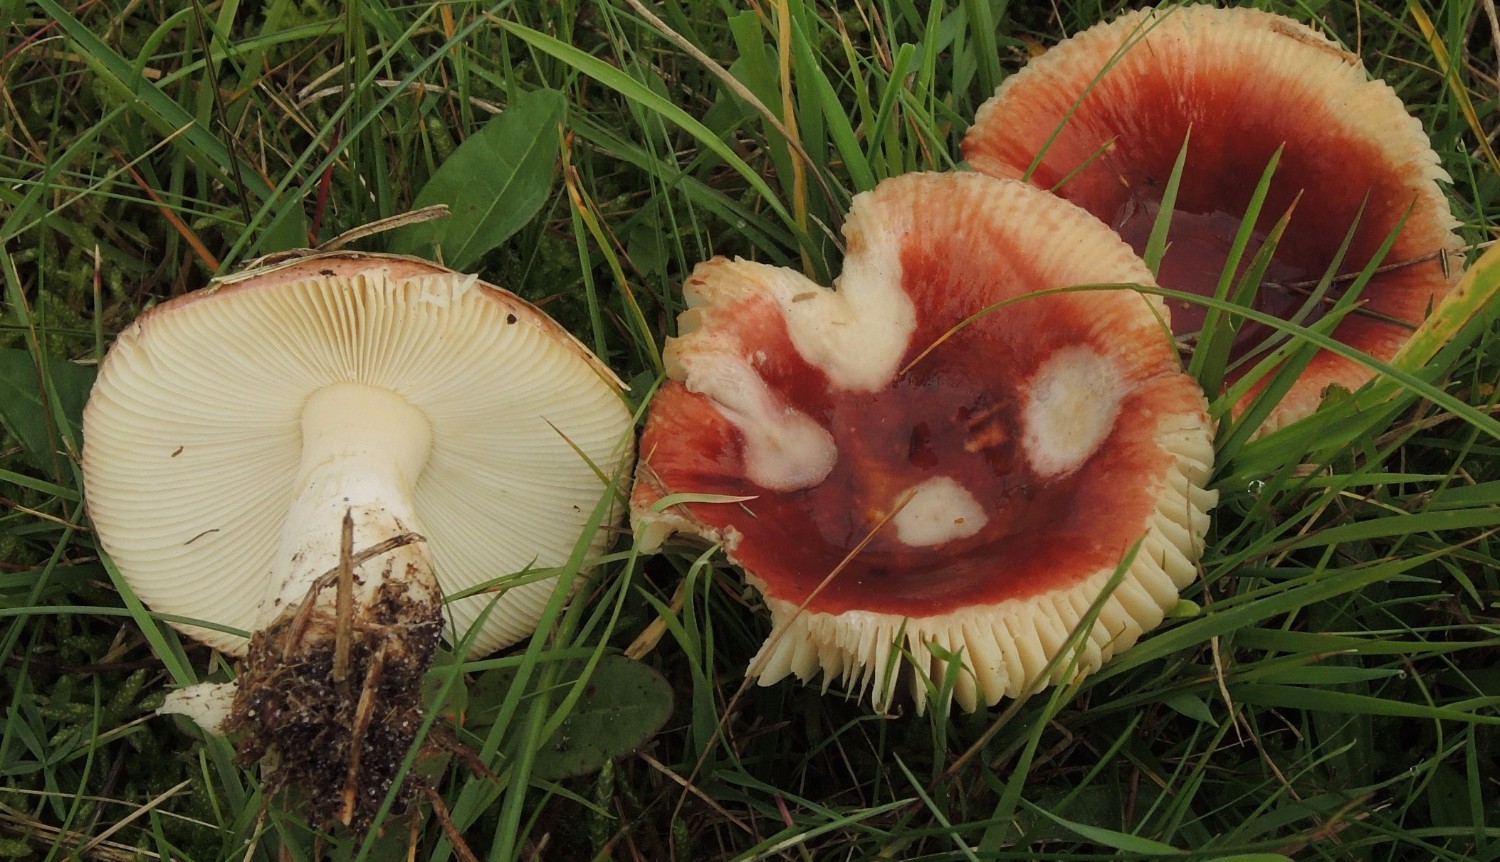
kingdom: Fungi
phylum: Basidiomycota
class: Agaricomycetes
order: Russulales
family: Russulaceae
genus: Russula
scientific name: Russula subrubens
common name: pile-skørhat
